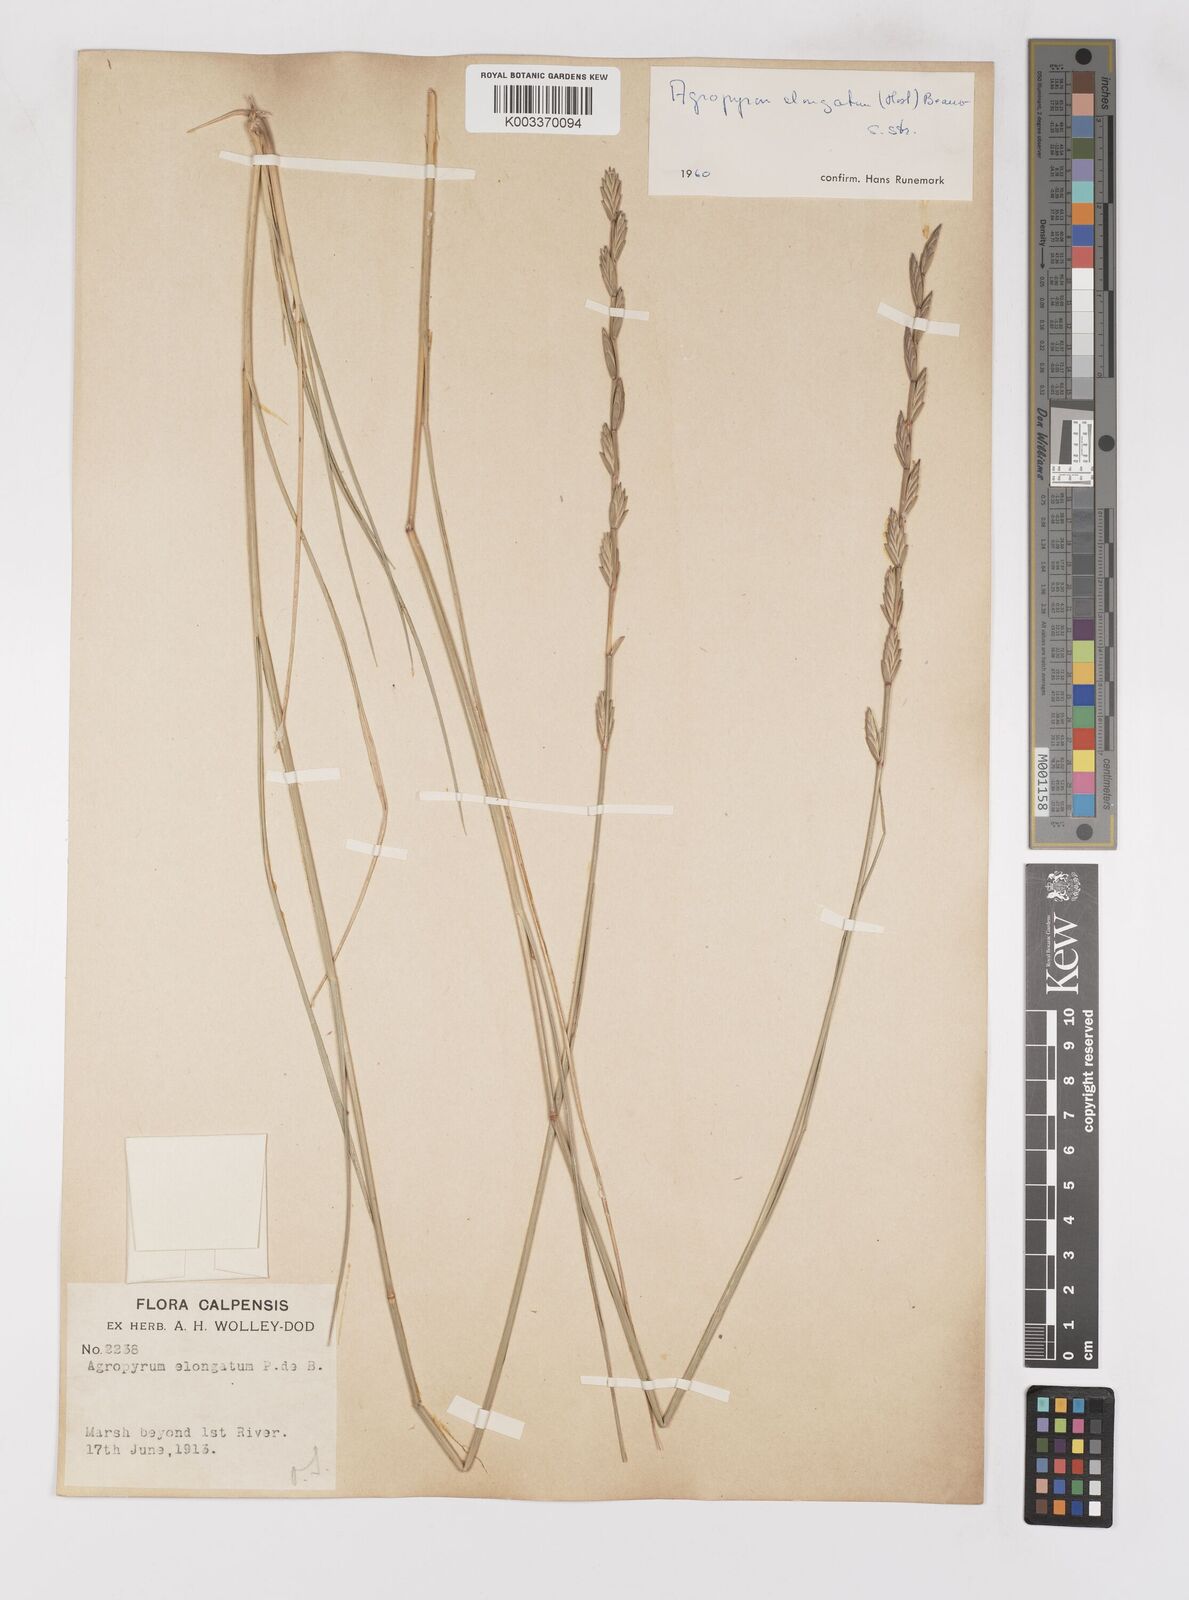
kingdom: Plantae
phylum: Tracheophyta
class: Liliopsida
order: Poales
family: Poaceae
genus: Thinopyrum
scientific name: Thinopyrum elongatum
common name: Tall wheatgrass
